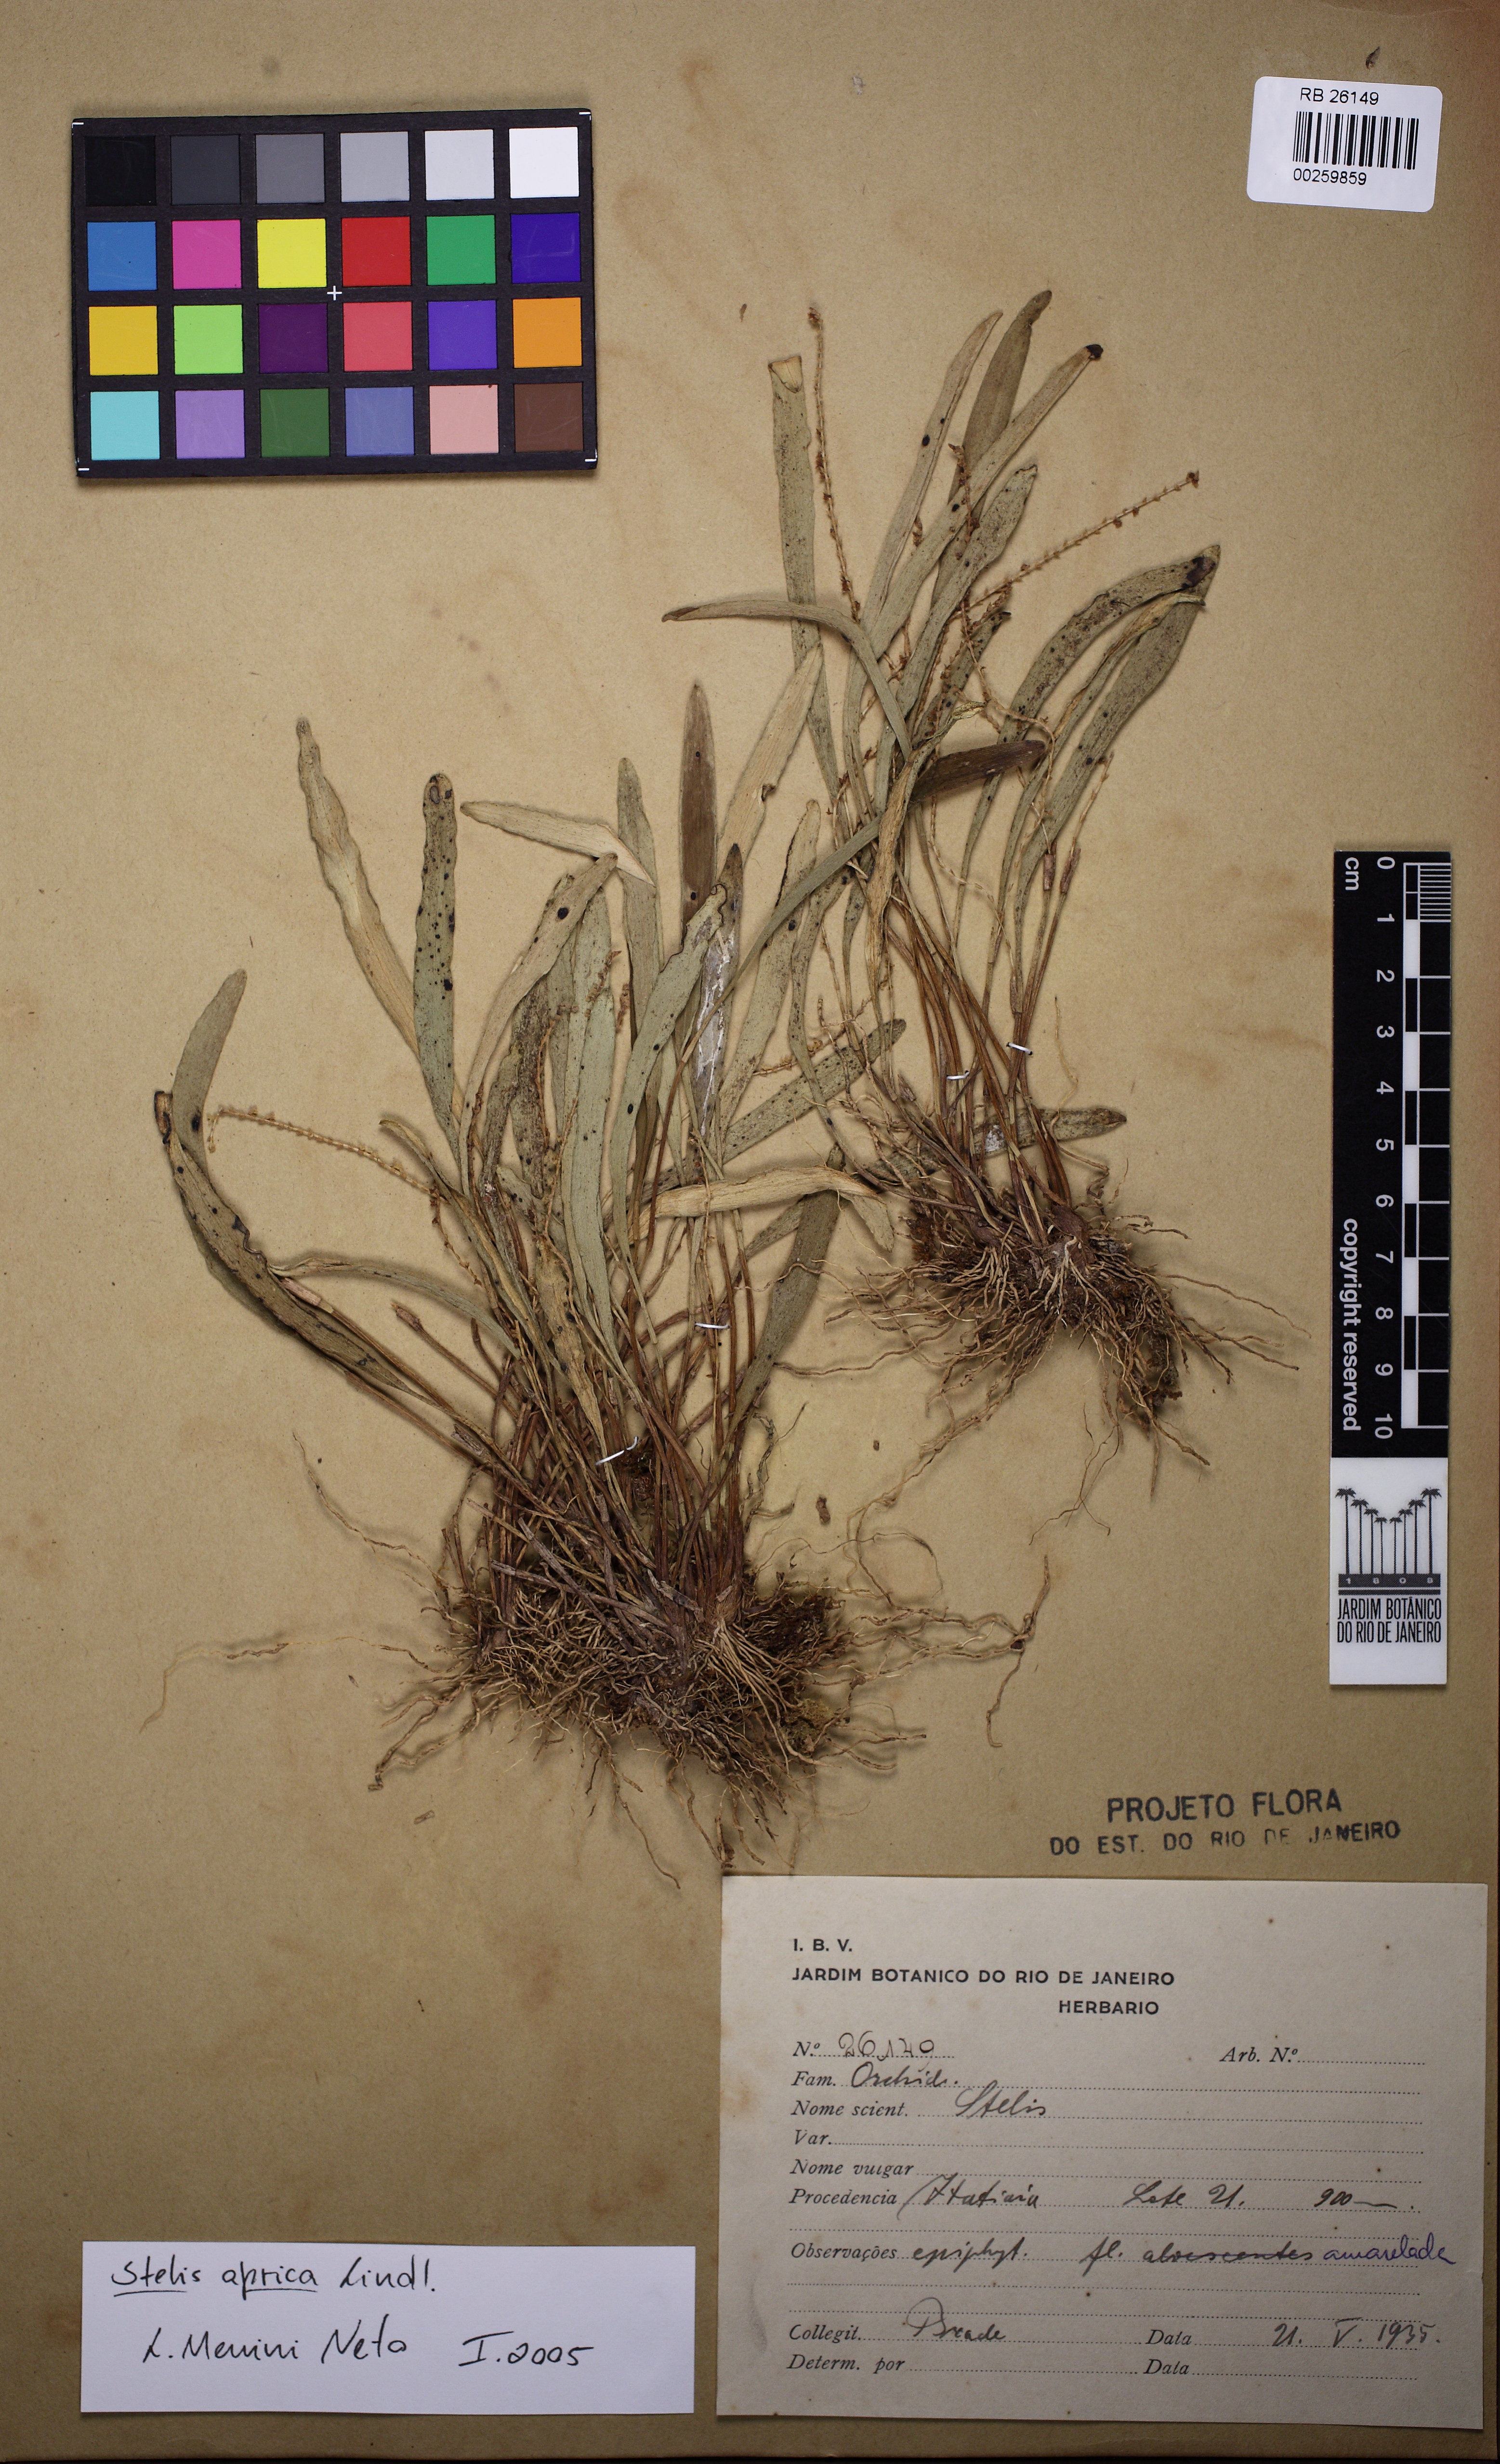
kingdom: Plantae
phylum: Tracheophyta
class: Liliopsida
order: Asparagales
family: Orchidaceae
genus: Stelis
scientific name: Stelis aprica
